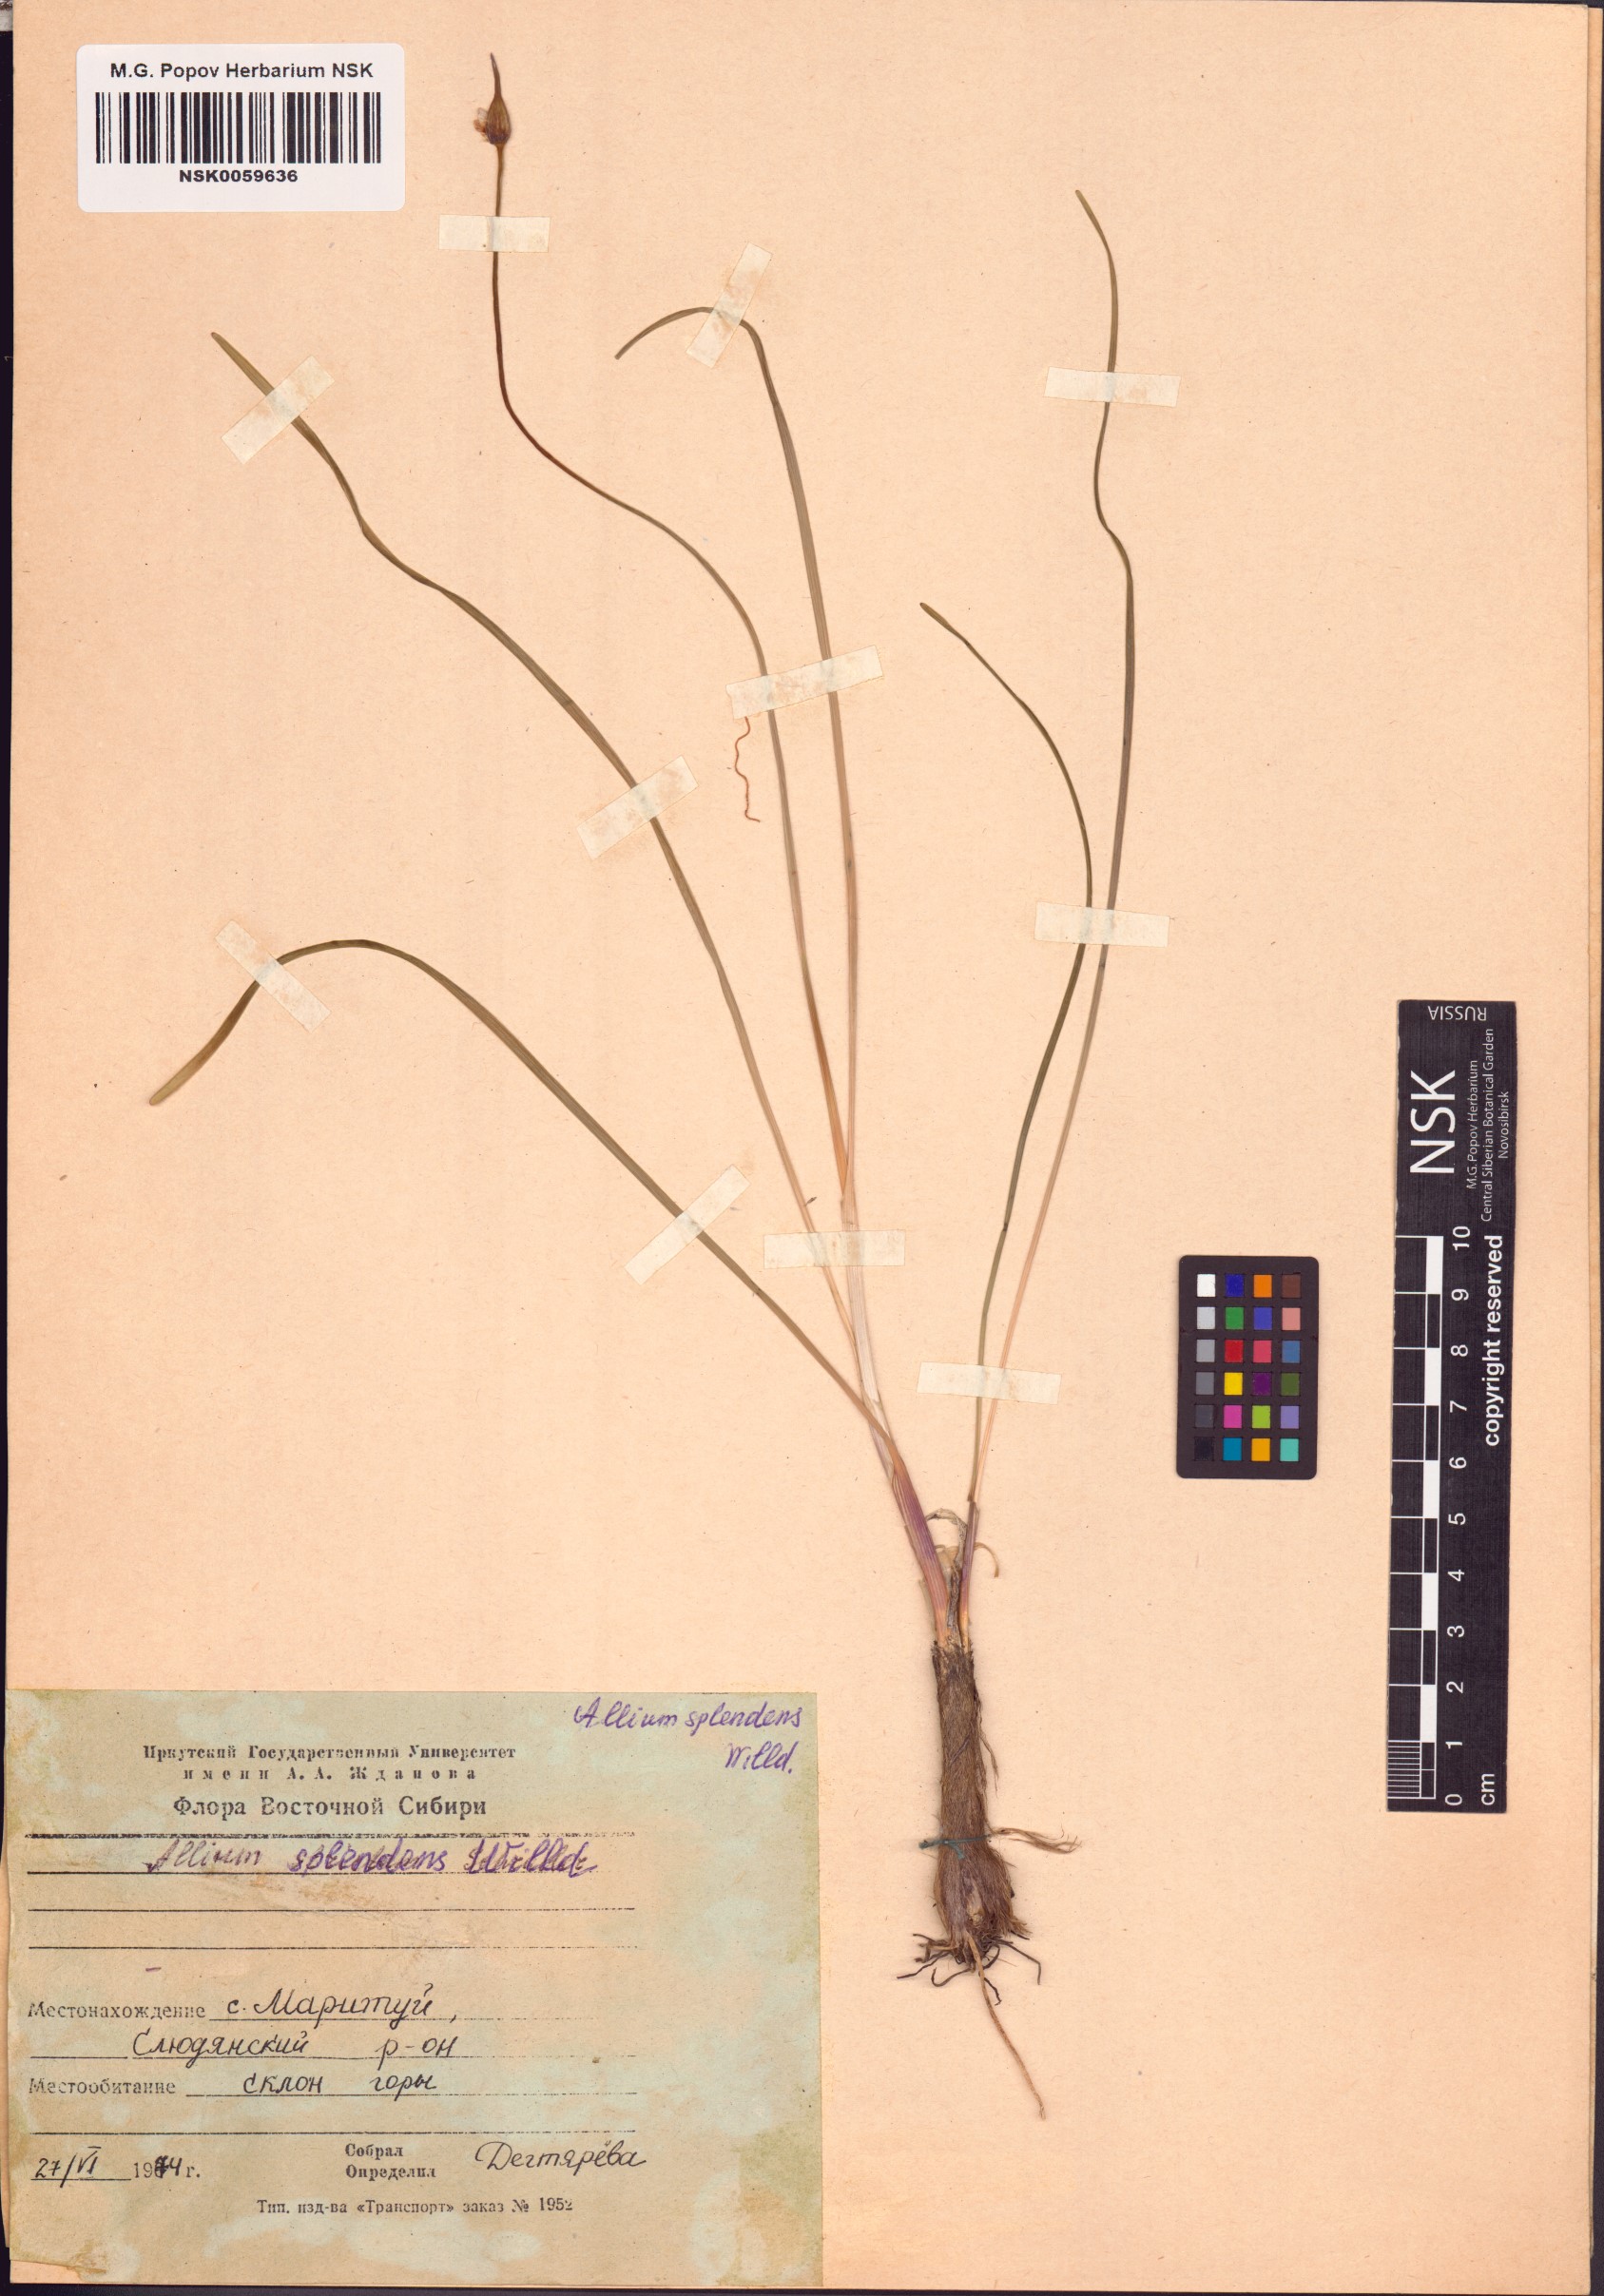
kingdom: Plantae
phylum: Tracheophyta
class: Liliopsida
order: Asparagales
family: Amaryllidaceae
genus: Allium
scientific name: Allium splendens
